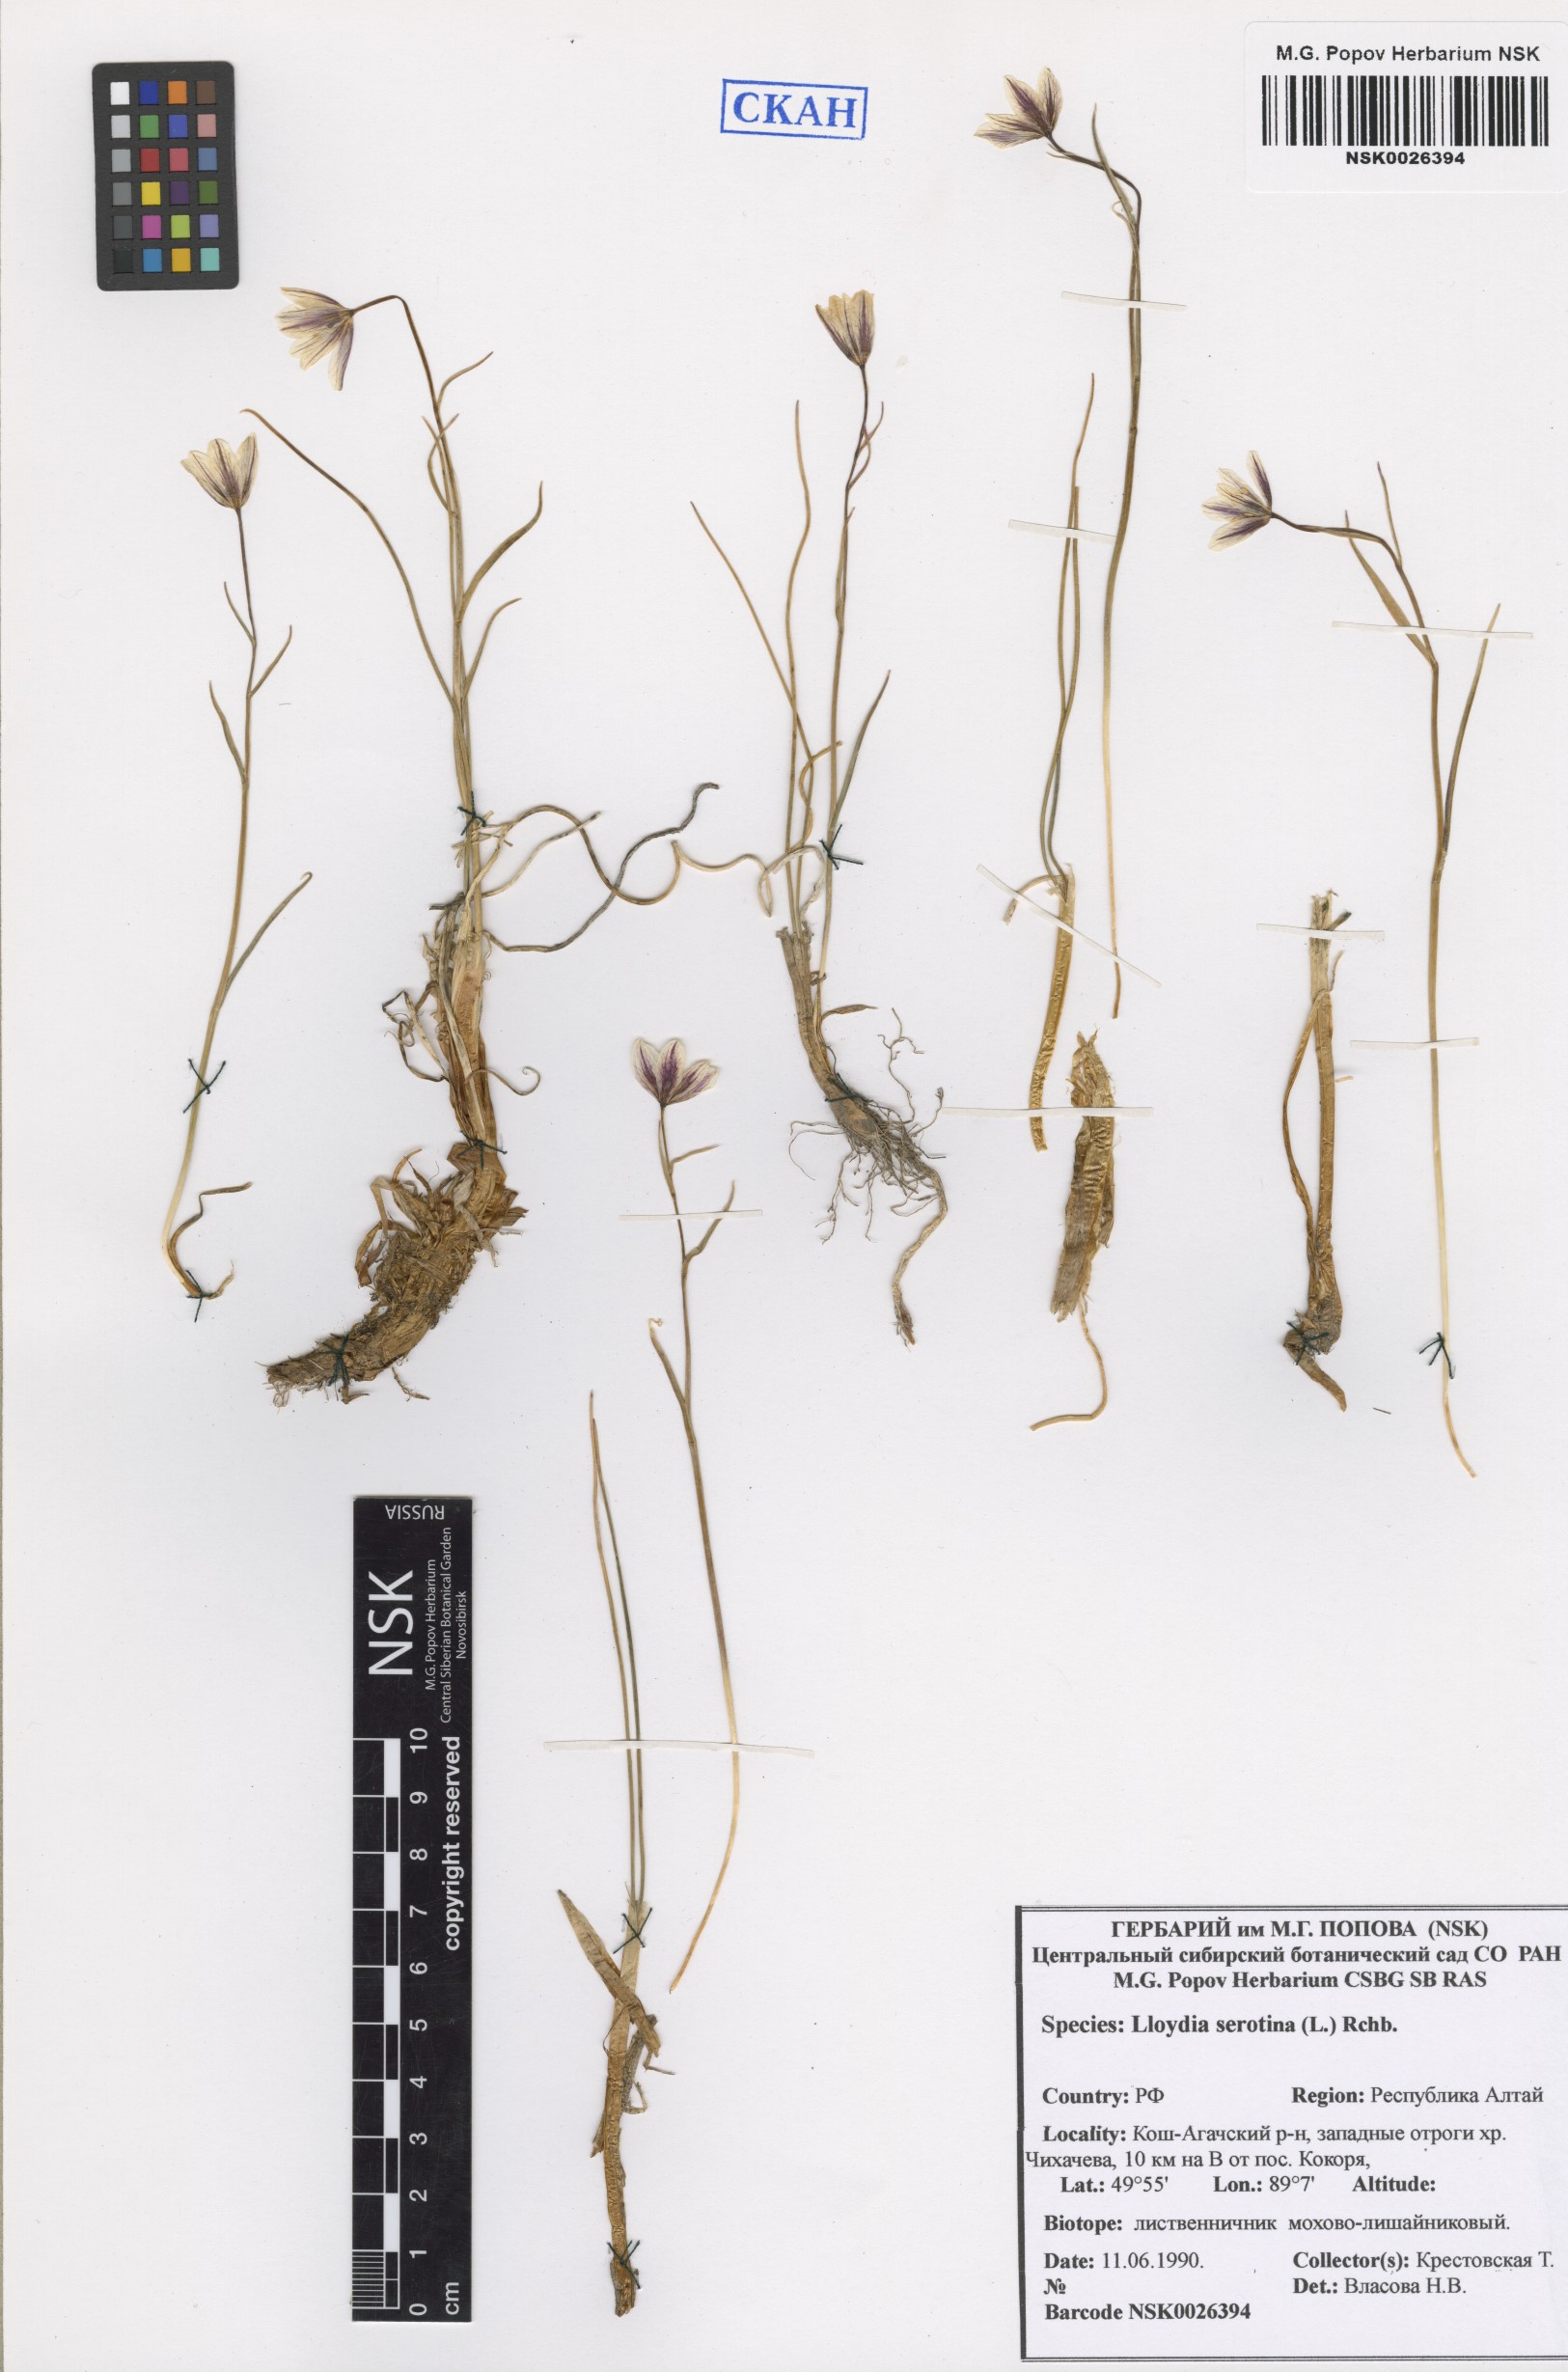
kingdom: Plantae
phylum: Tracheophyta
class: Liliopsida
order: Liliales
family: Liliaceae
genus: Gagea
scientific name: Gagea serotina
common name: Snowdon lily
